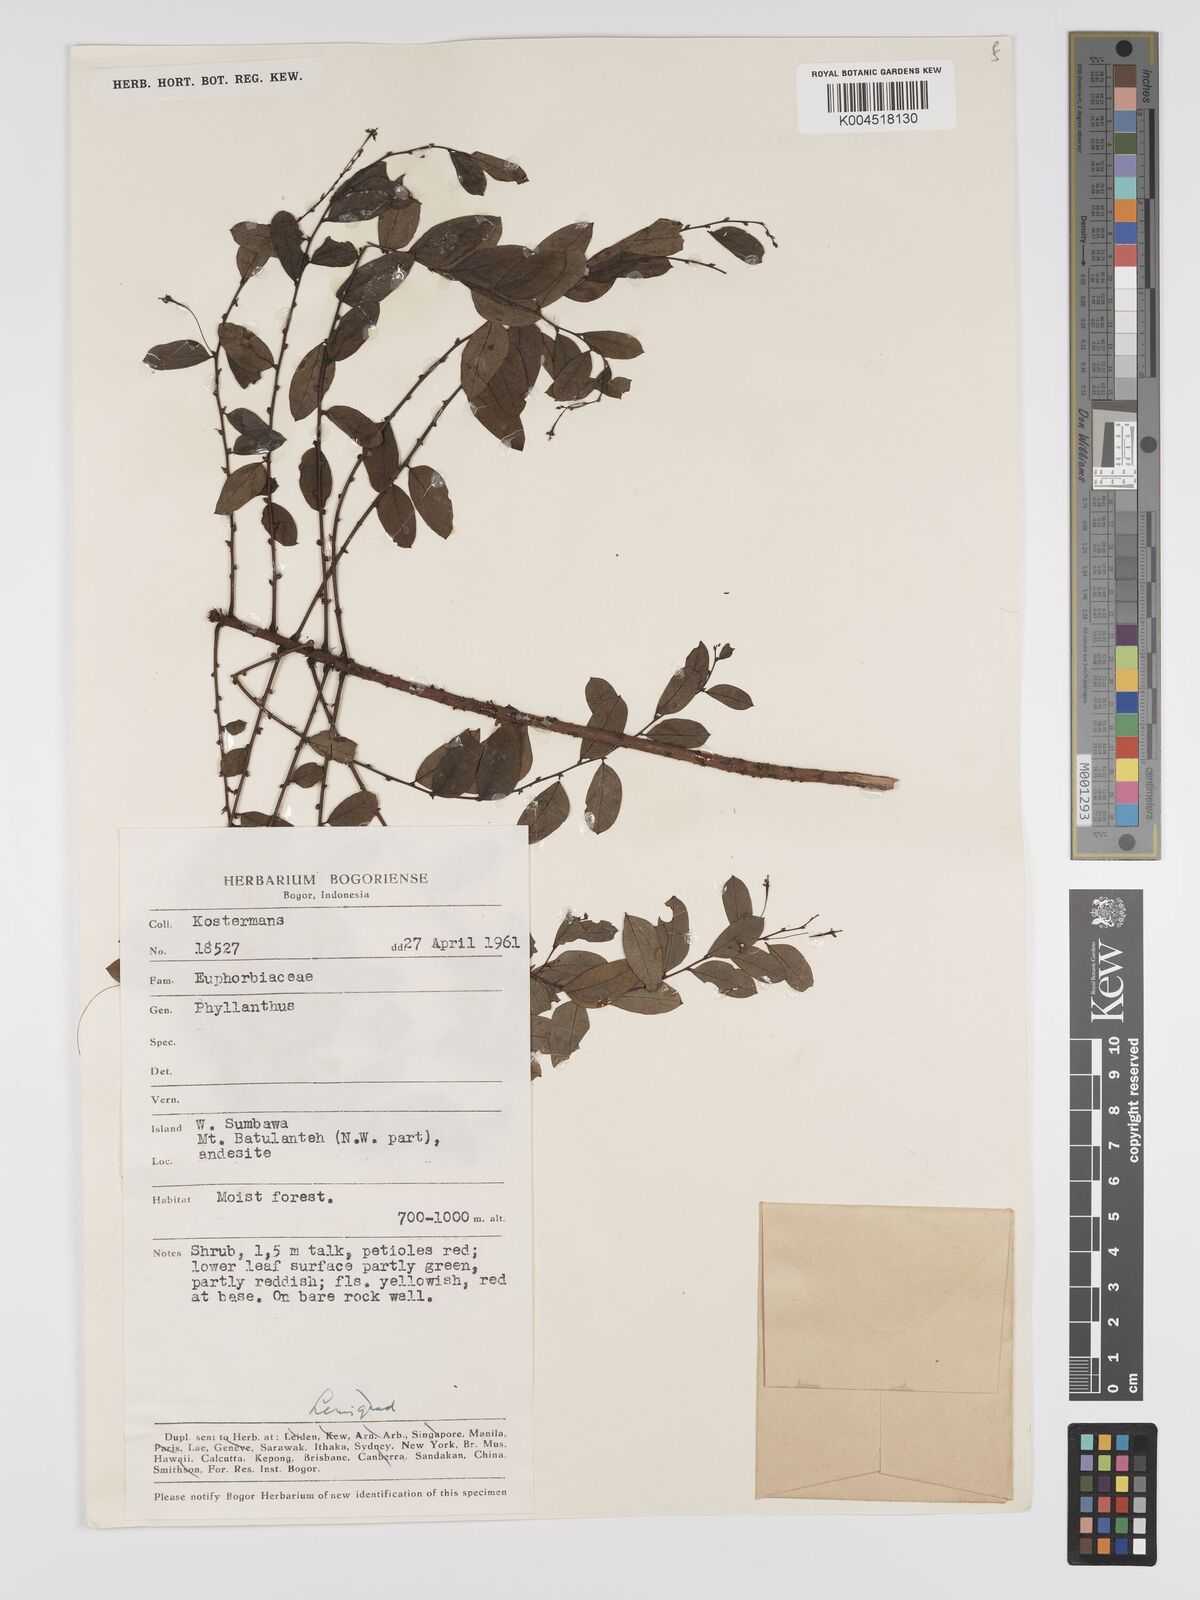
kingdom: Plantae
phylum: Tracheophyta
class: Magnoliopsida
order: Malpighiales
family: Phyllanthaceae
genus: Phyllanthus
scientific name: Phyllanthus
